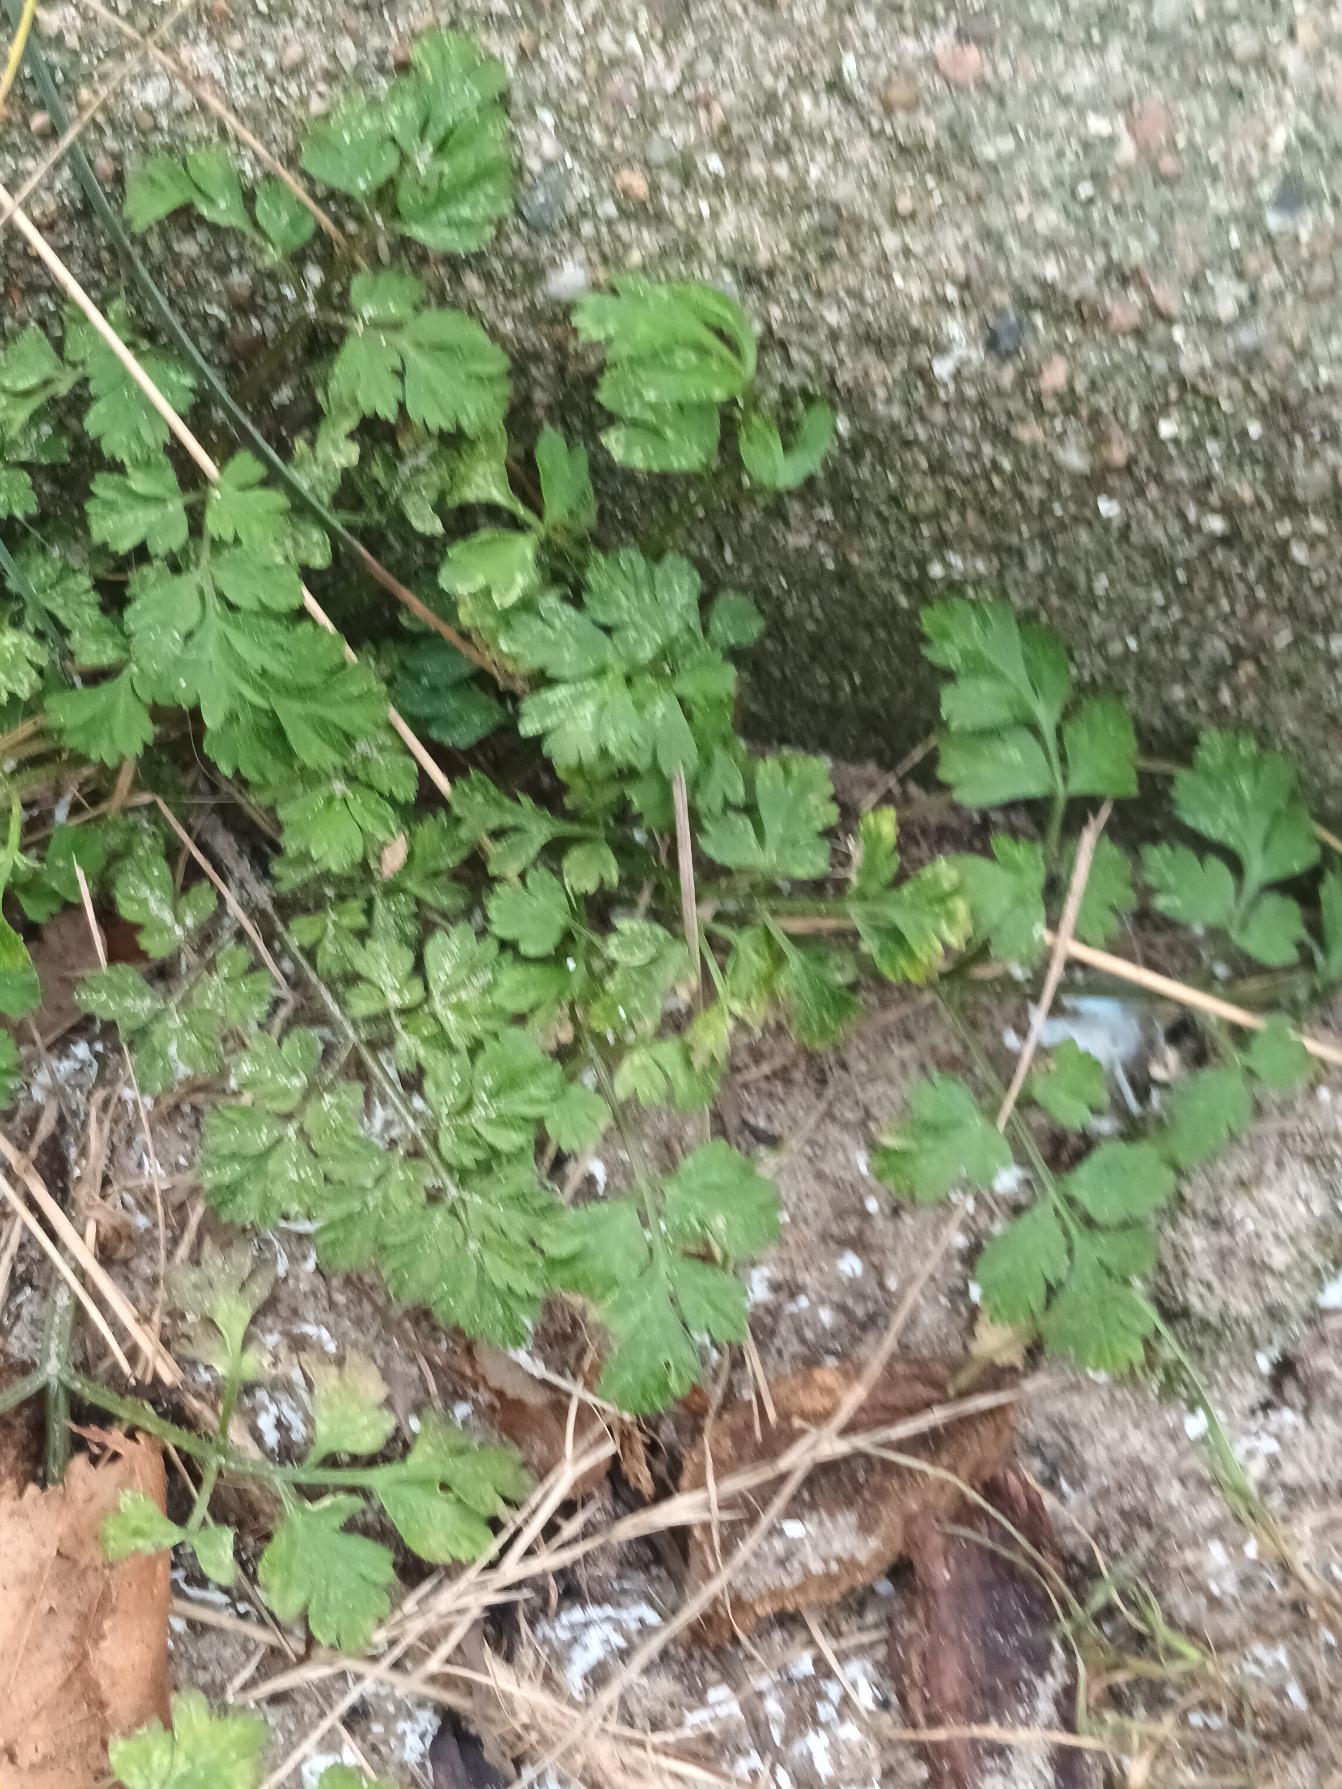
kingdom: Plantae
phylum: Tracheophyta
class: Magnoliopsida
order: Apiales
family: Apiaceae
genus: Chaerophyllum
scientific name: Chaerophyllum temulum
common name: Almindelig hulsvøb
